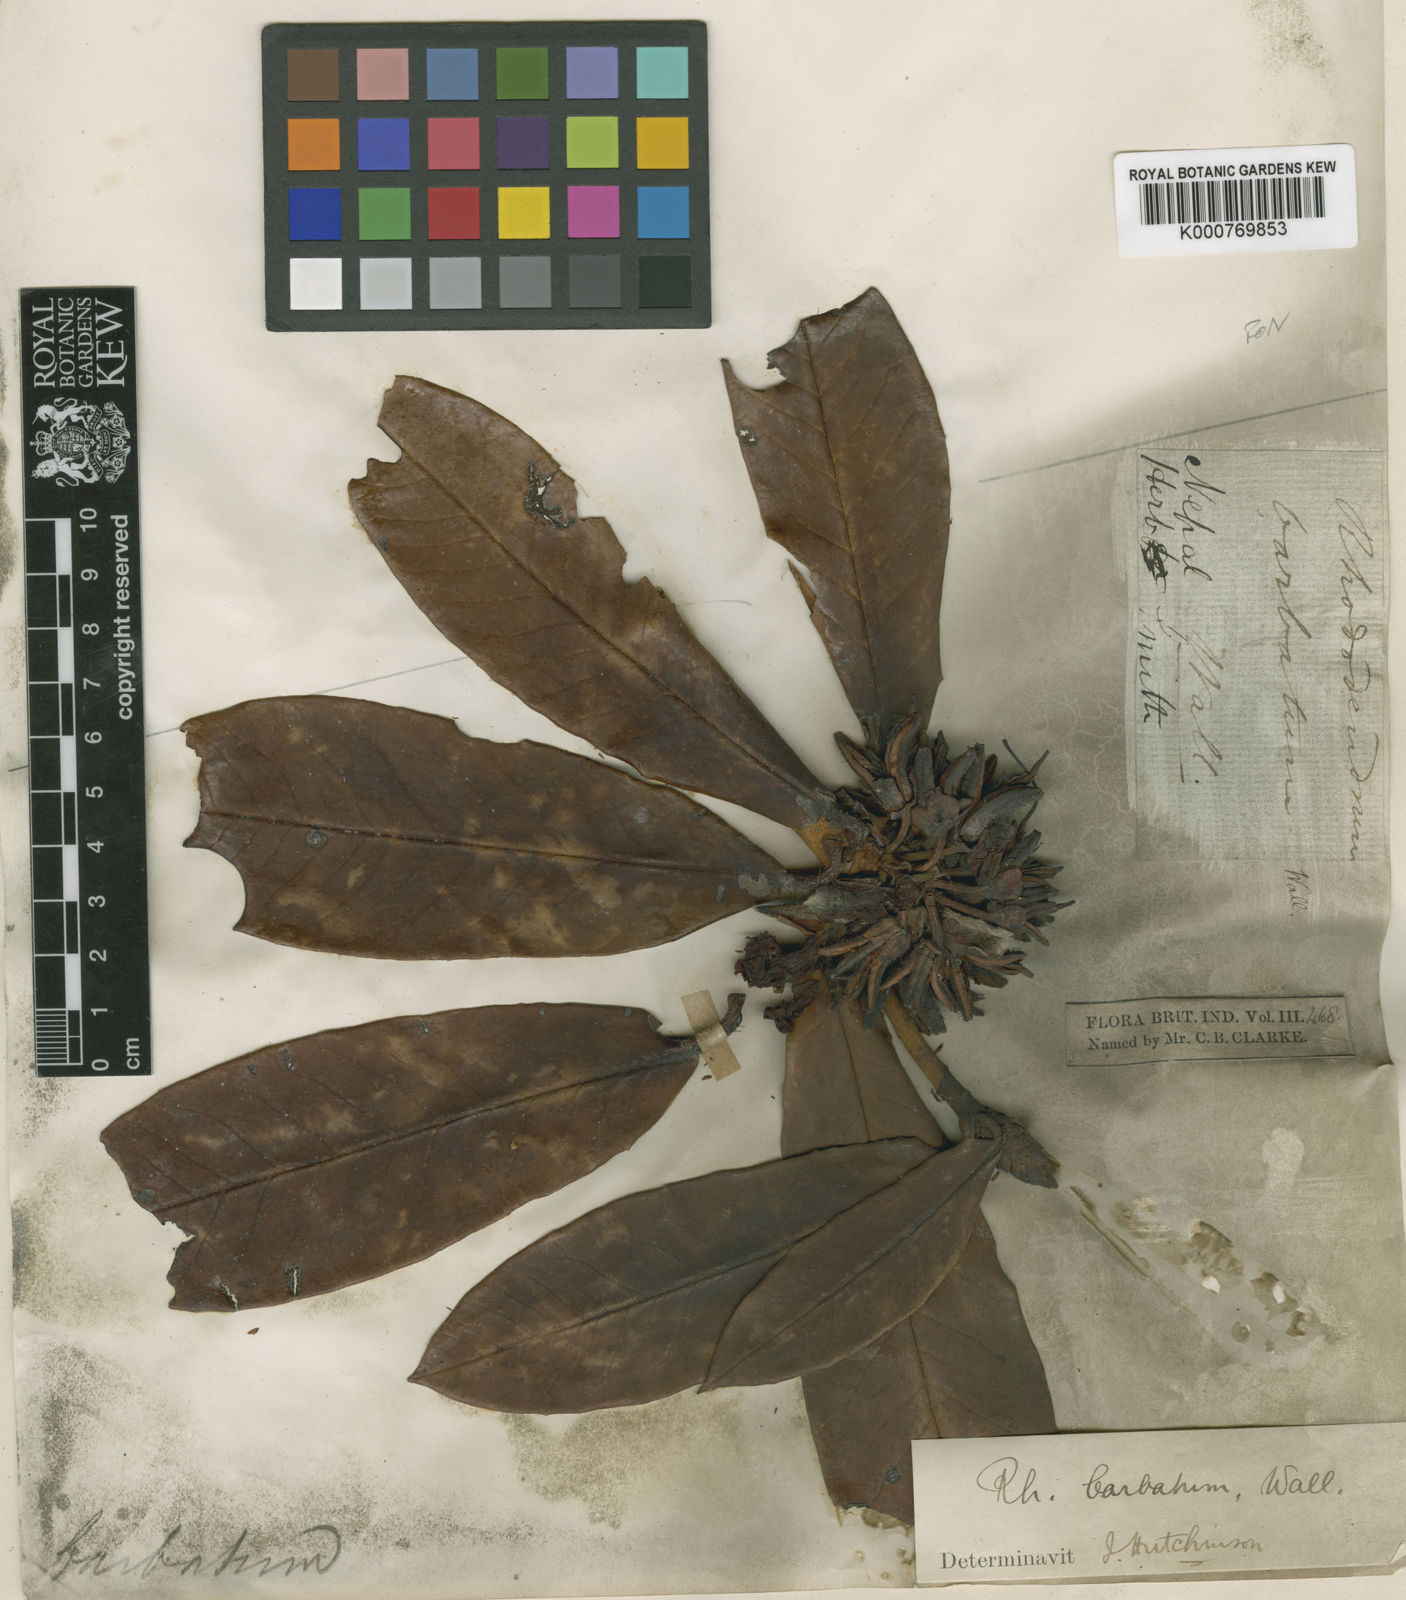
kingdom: Plantae
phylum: Tracheophyta
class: Magnoliopsida
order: Ericales
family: Ericaceae
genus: Rhododendron
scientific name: Rhododendron
